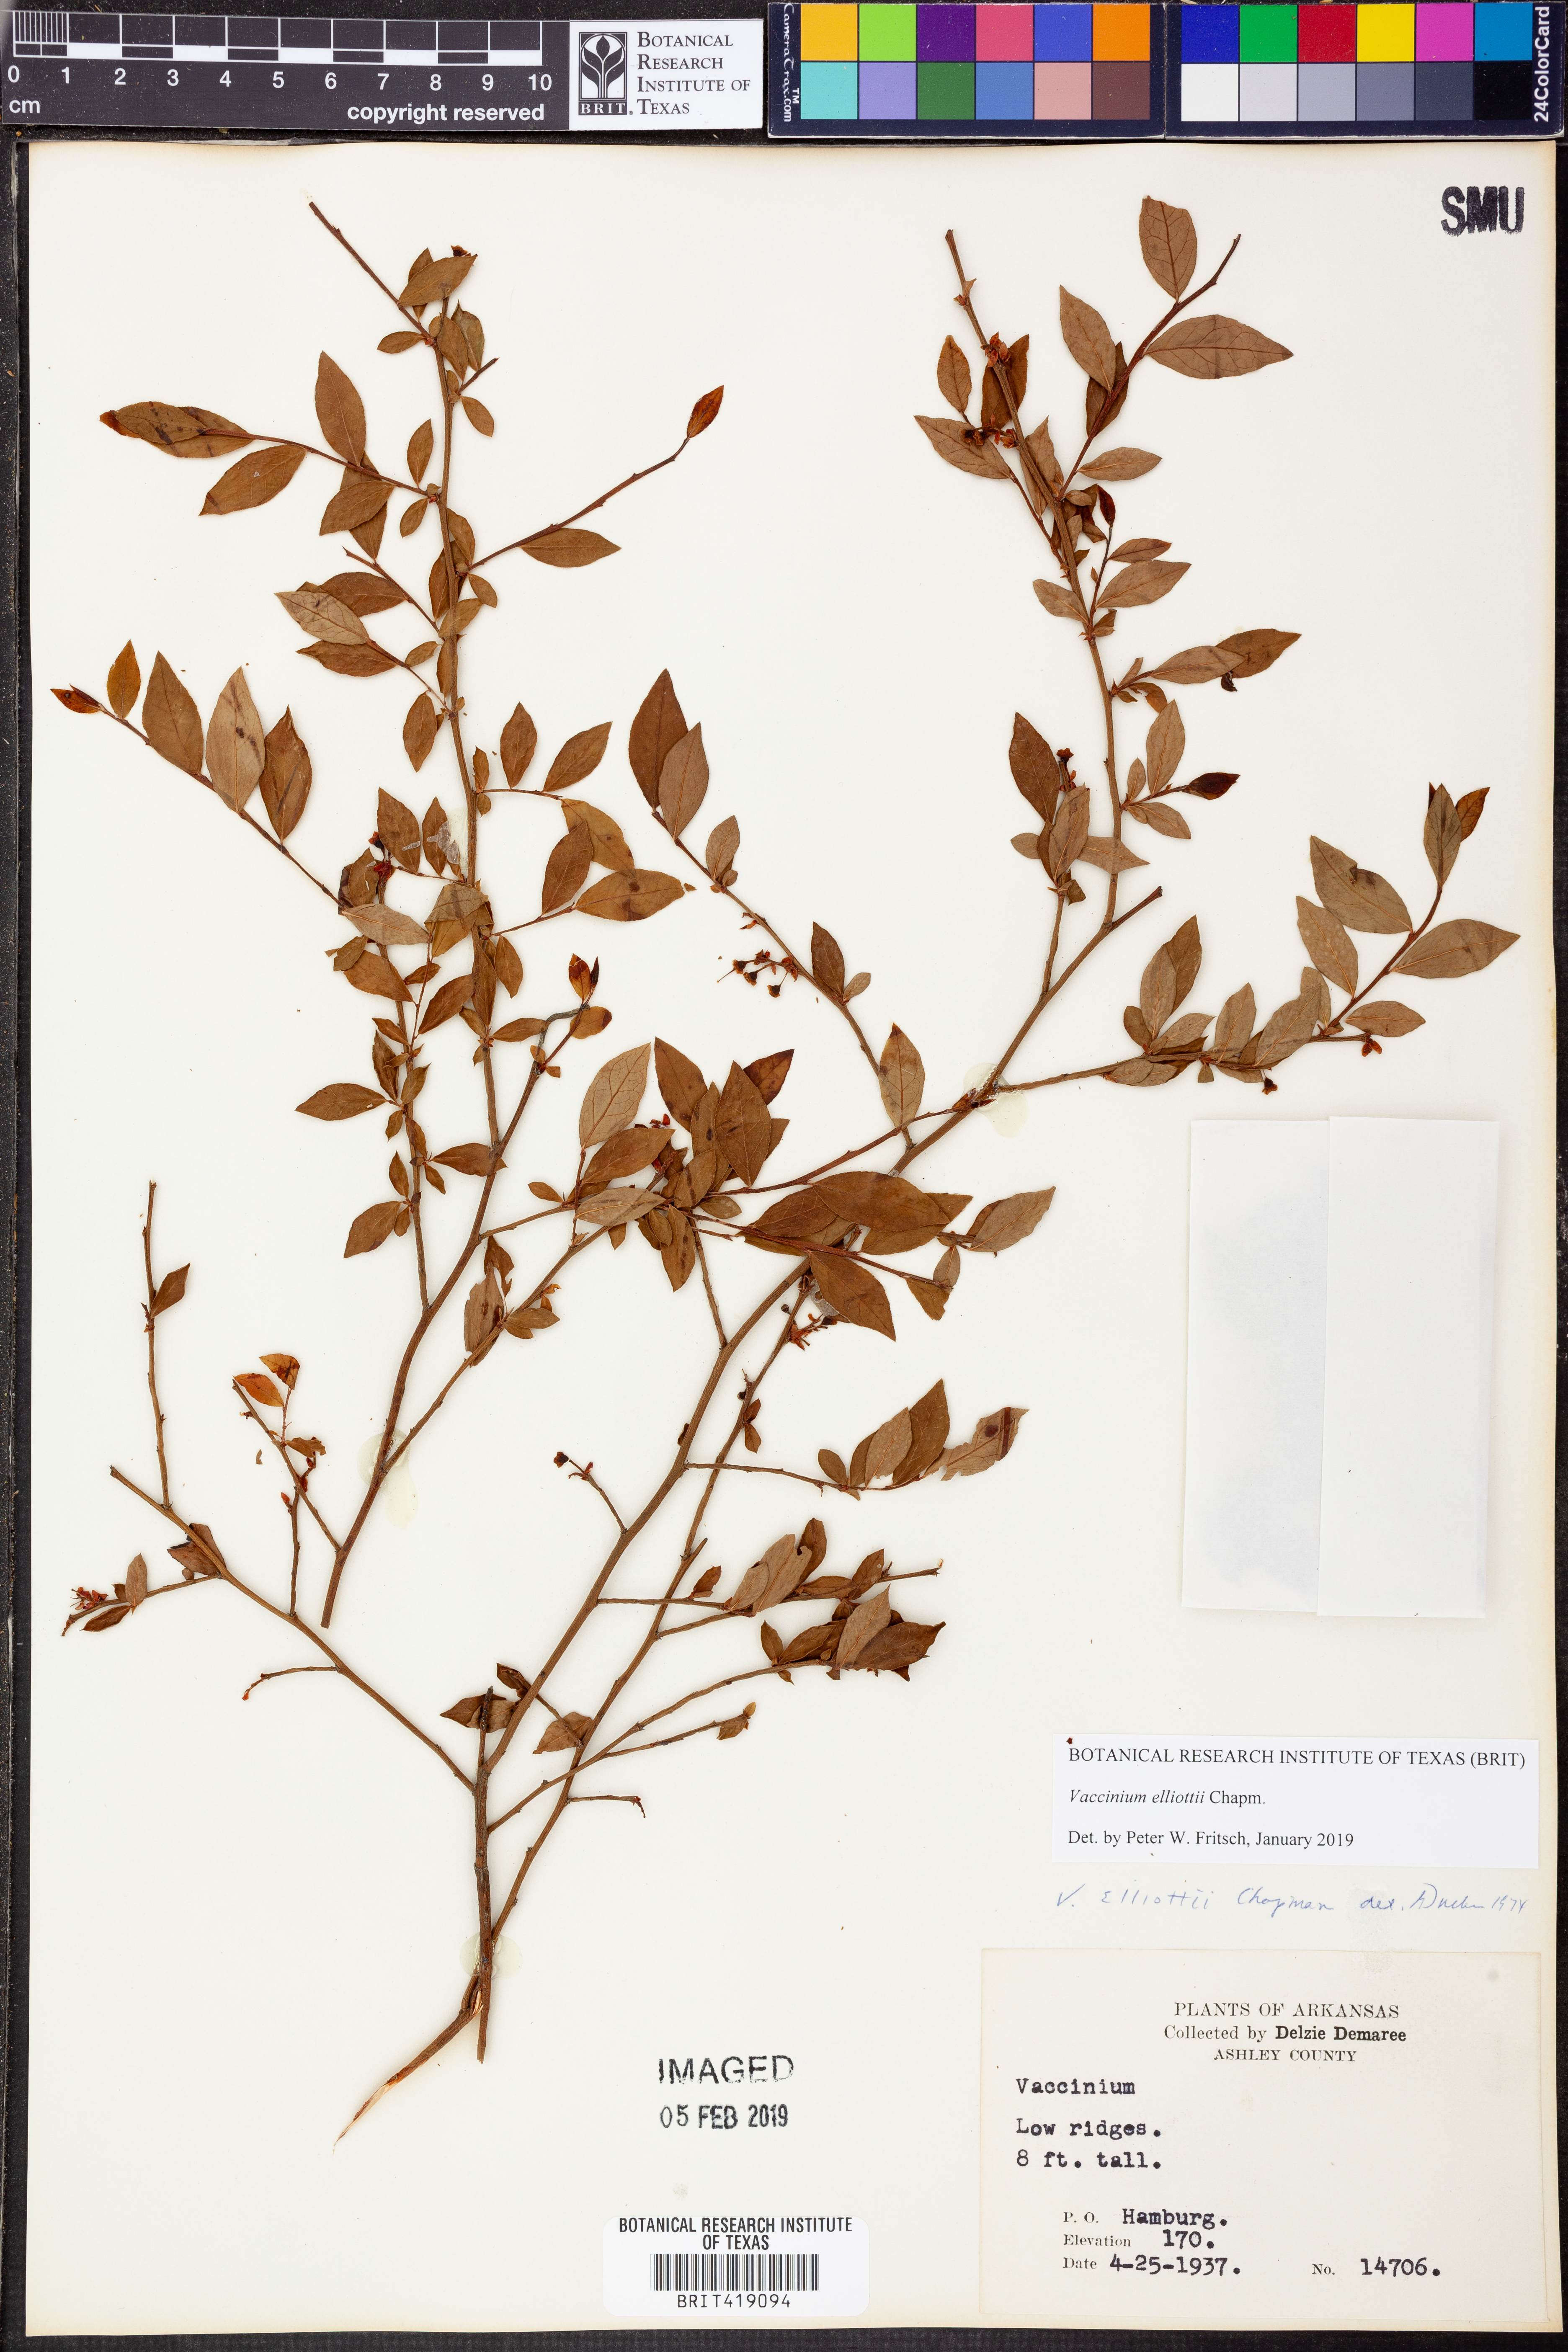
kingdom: Plantae
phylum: Tracheophyta
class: Magnoliopsida
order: Ericales
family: Ericaceae
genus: Vaccinium
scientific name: Vaccinium corymbosum
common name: Blueberry
